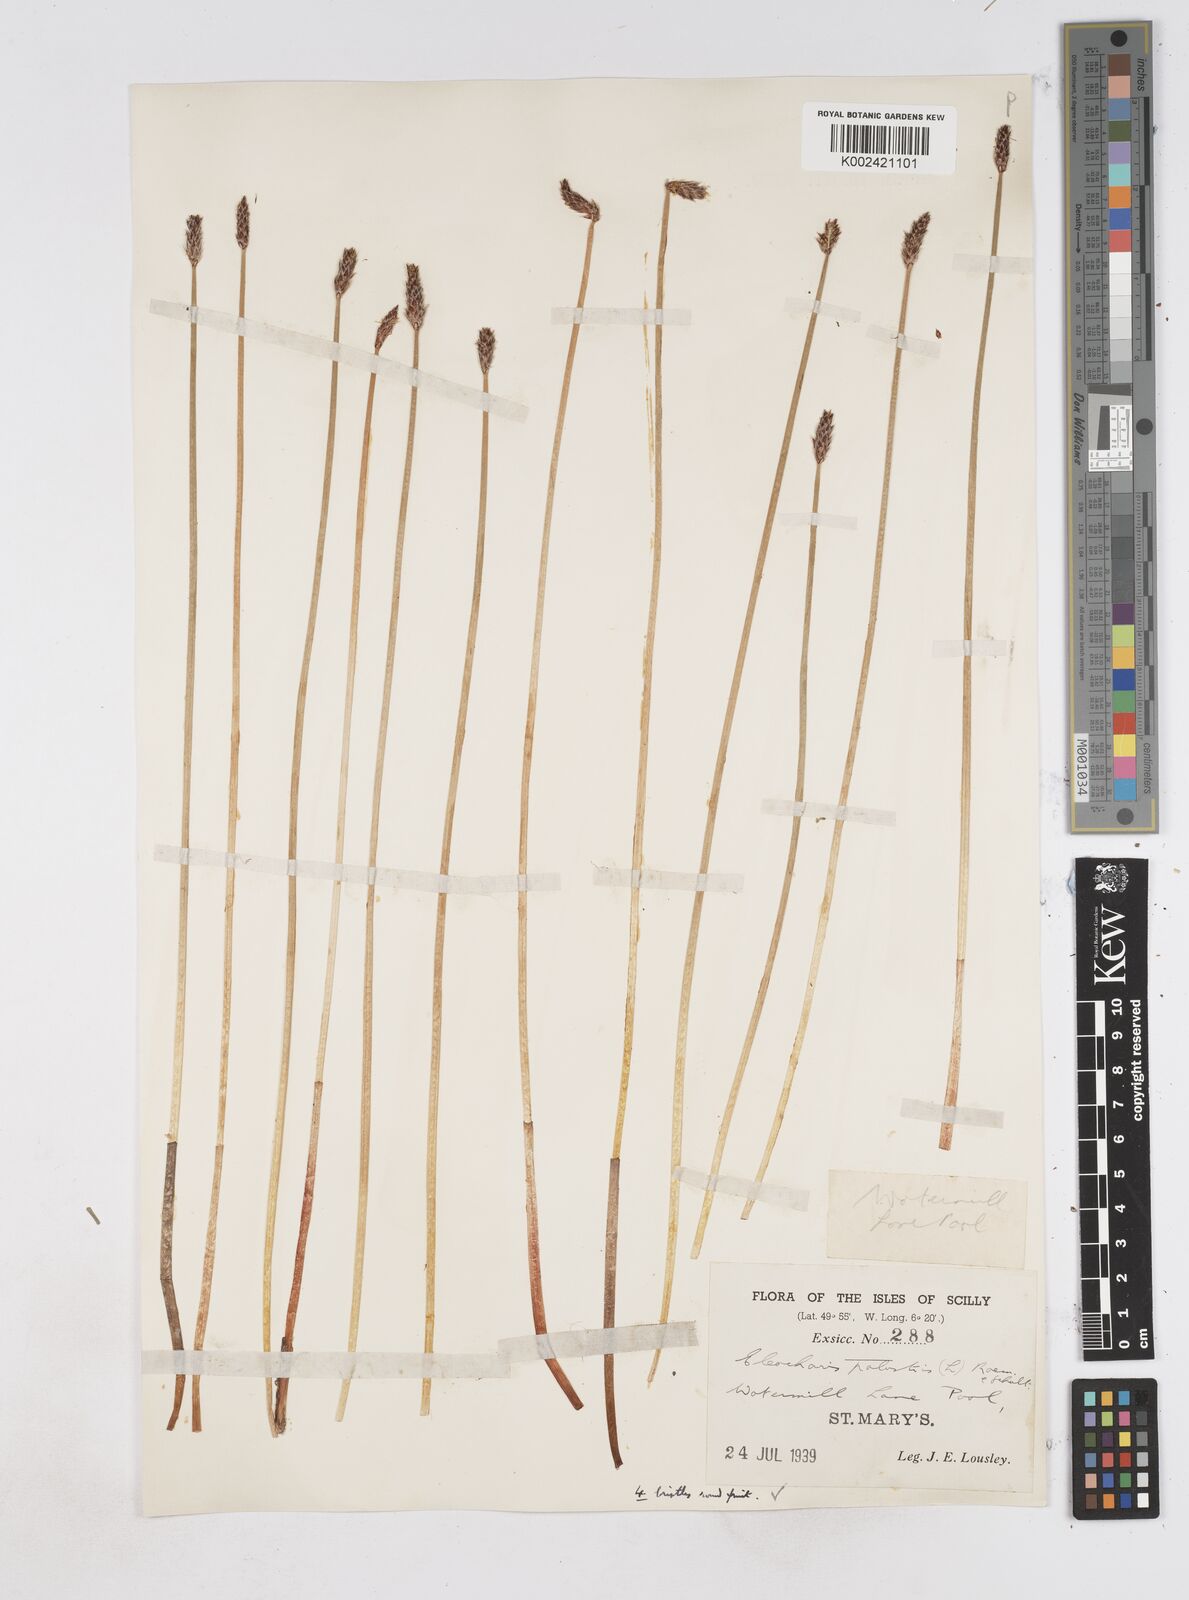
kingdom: Plantae
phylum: Tracheophyta
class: Liliopsida
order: Poales
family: Cyperaceae
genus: Eleocharis
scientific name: Eleocharis palustris
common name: Common spike-rush
